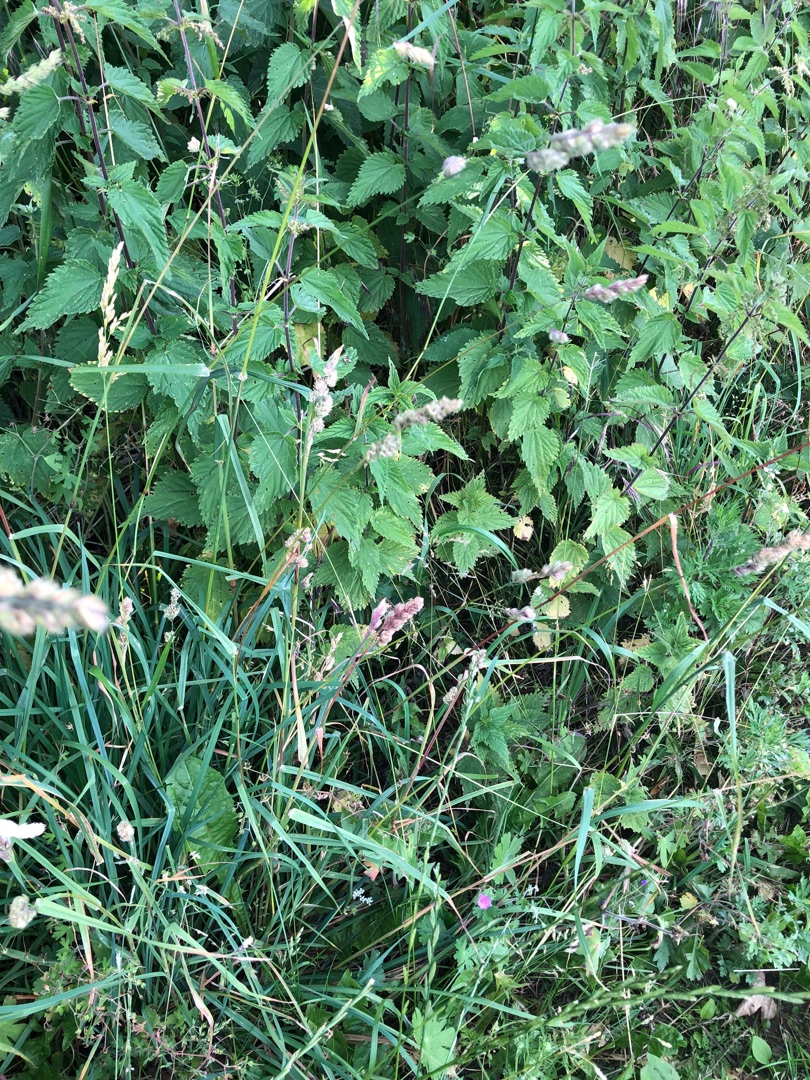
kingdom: Plantae
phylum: Tracheophyta
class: Liliopsida
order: Poales
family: Poaceae
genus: Dactylis
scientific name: Dactylis glomerata
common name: Almindelig hundegræs
